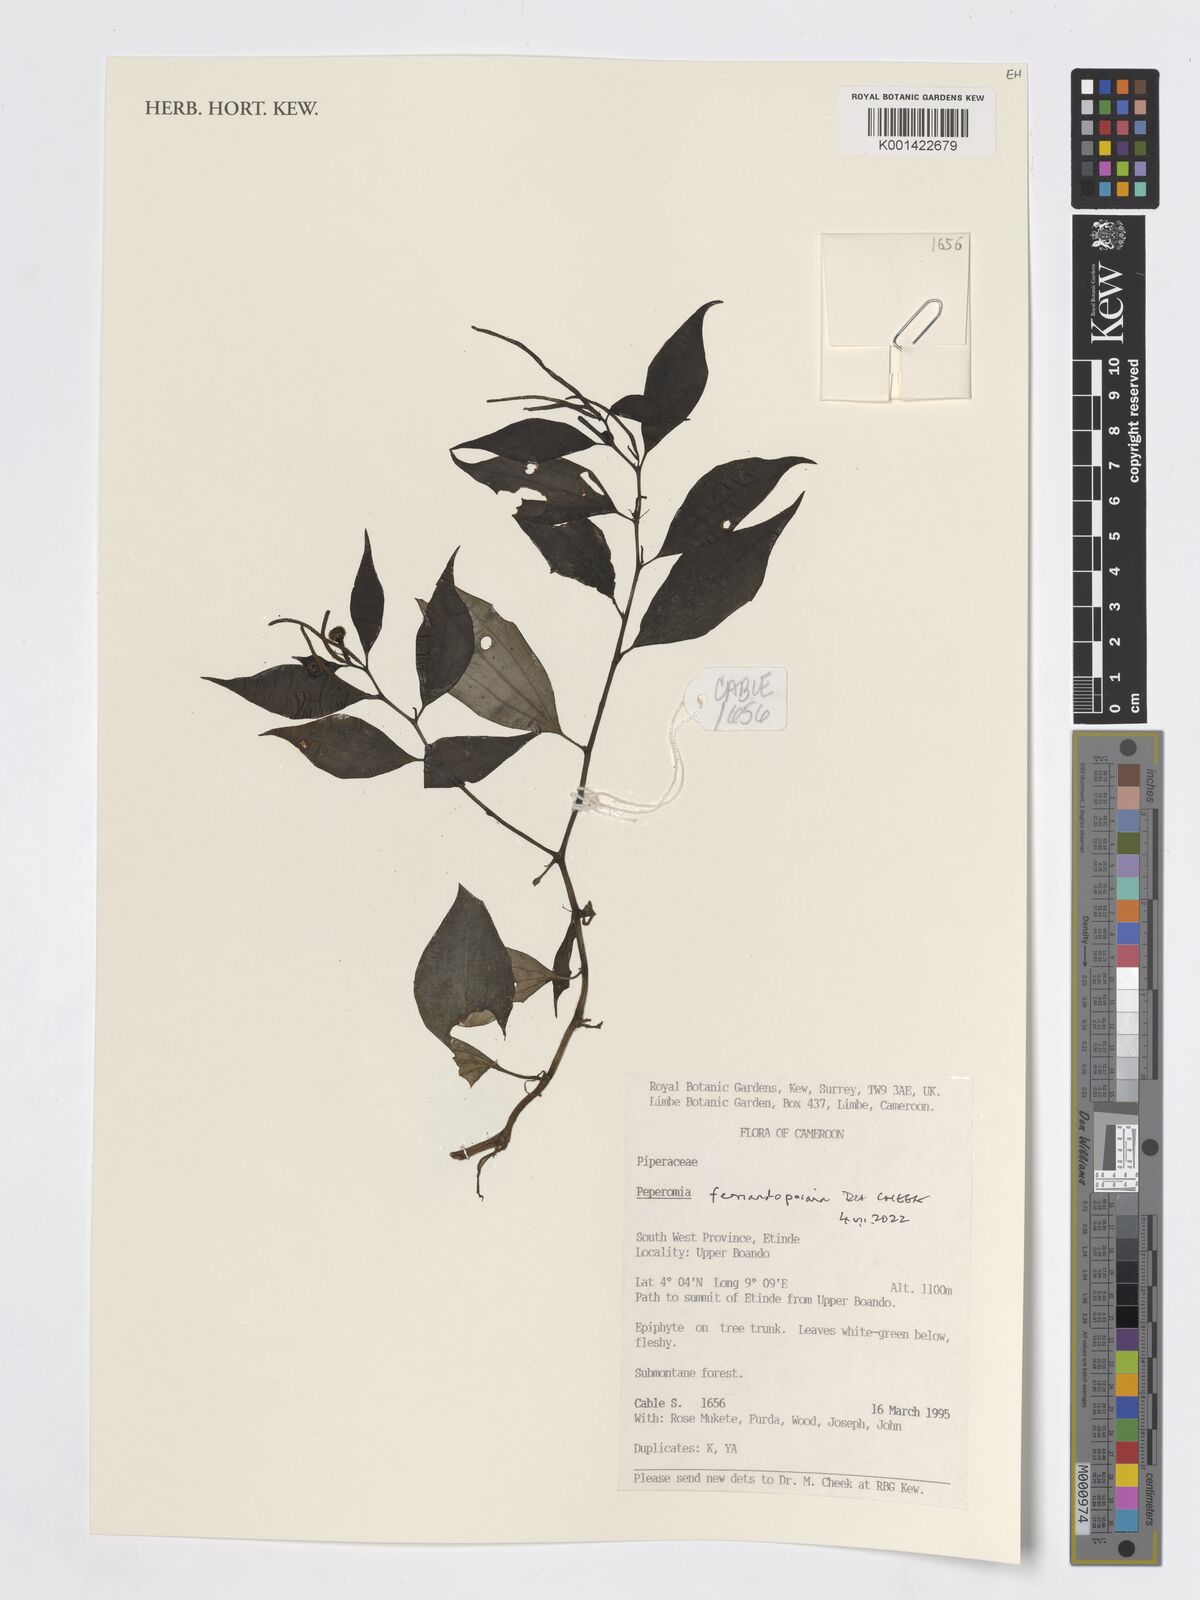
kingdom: Plantae
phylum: Tracheophyta
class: Magnoliopsida
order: Piperales
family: Piperaceae
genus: Peperomia
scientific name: Peperomia fernandopoiana
